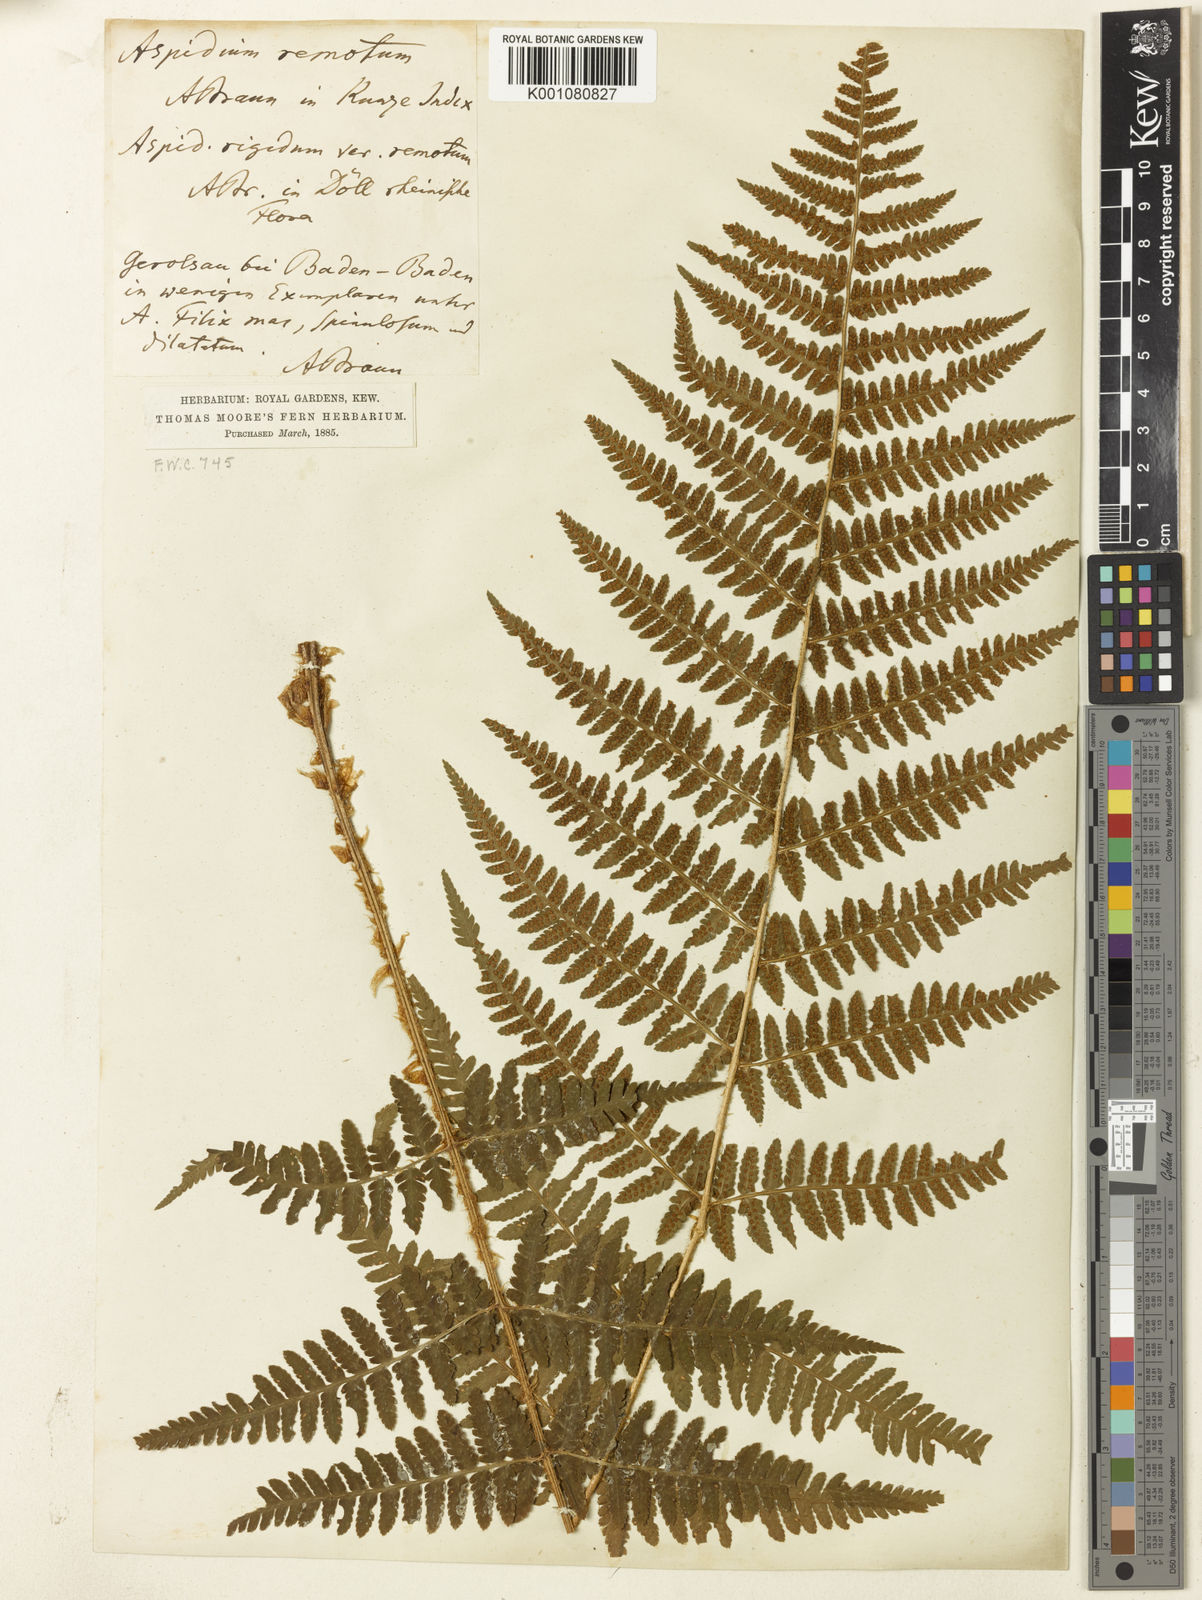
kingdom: Plantae
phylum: Tracheophyta
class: Polypodiopsida
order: Polypodiales
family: Dryopteridaceae
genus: Dryopteris
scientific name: Dryopteris affinis
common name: Scaly male fern
